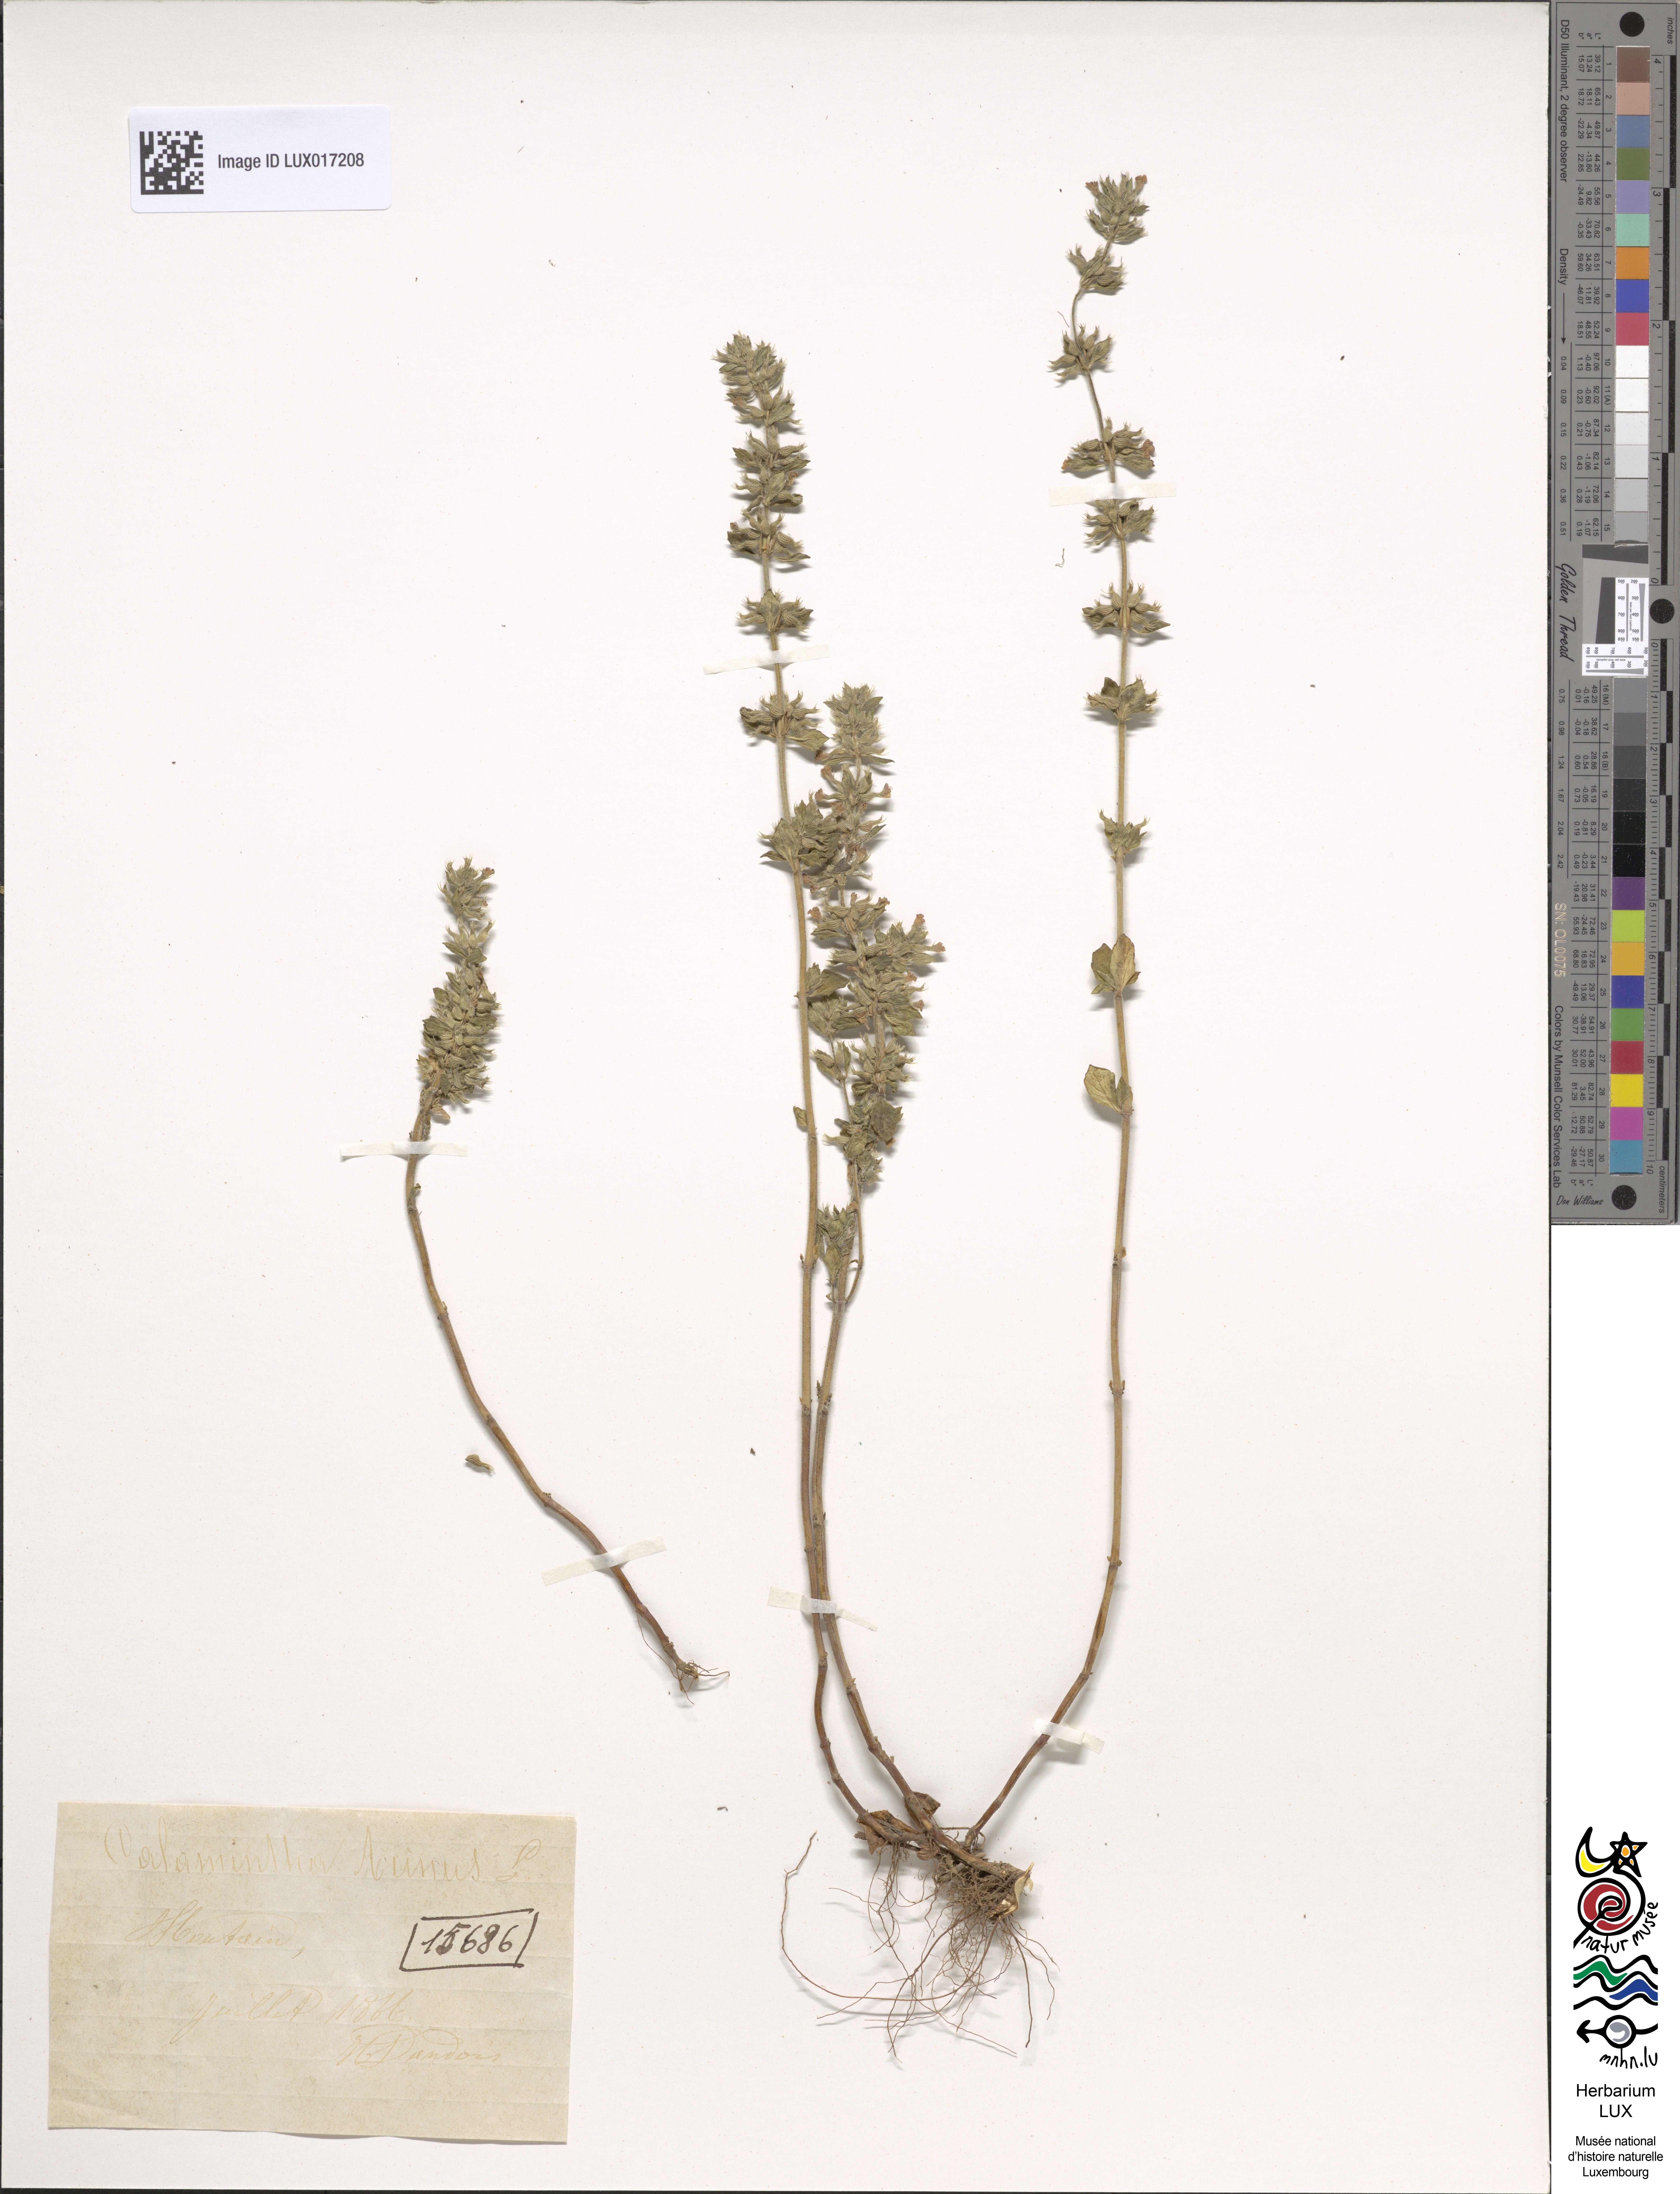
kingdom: Plantae
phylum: Tracheophyta
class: Magnoliopsida
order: Lamiales
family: Lamiaceae
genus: Clinopodium
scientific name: Clinopodium acinos
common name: Basil thyme
